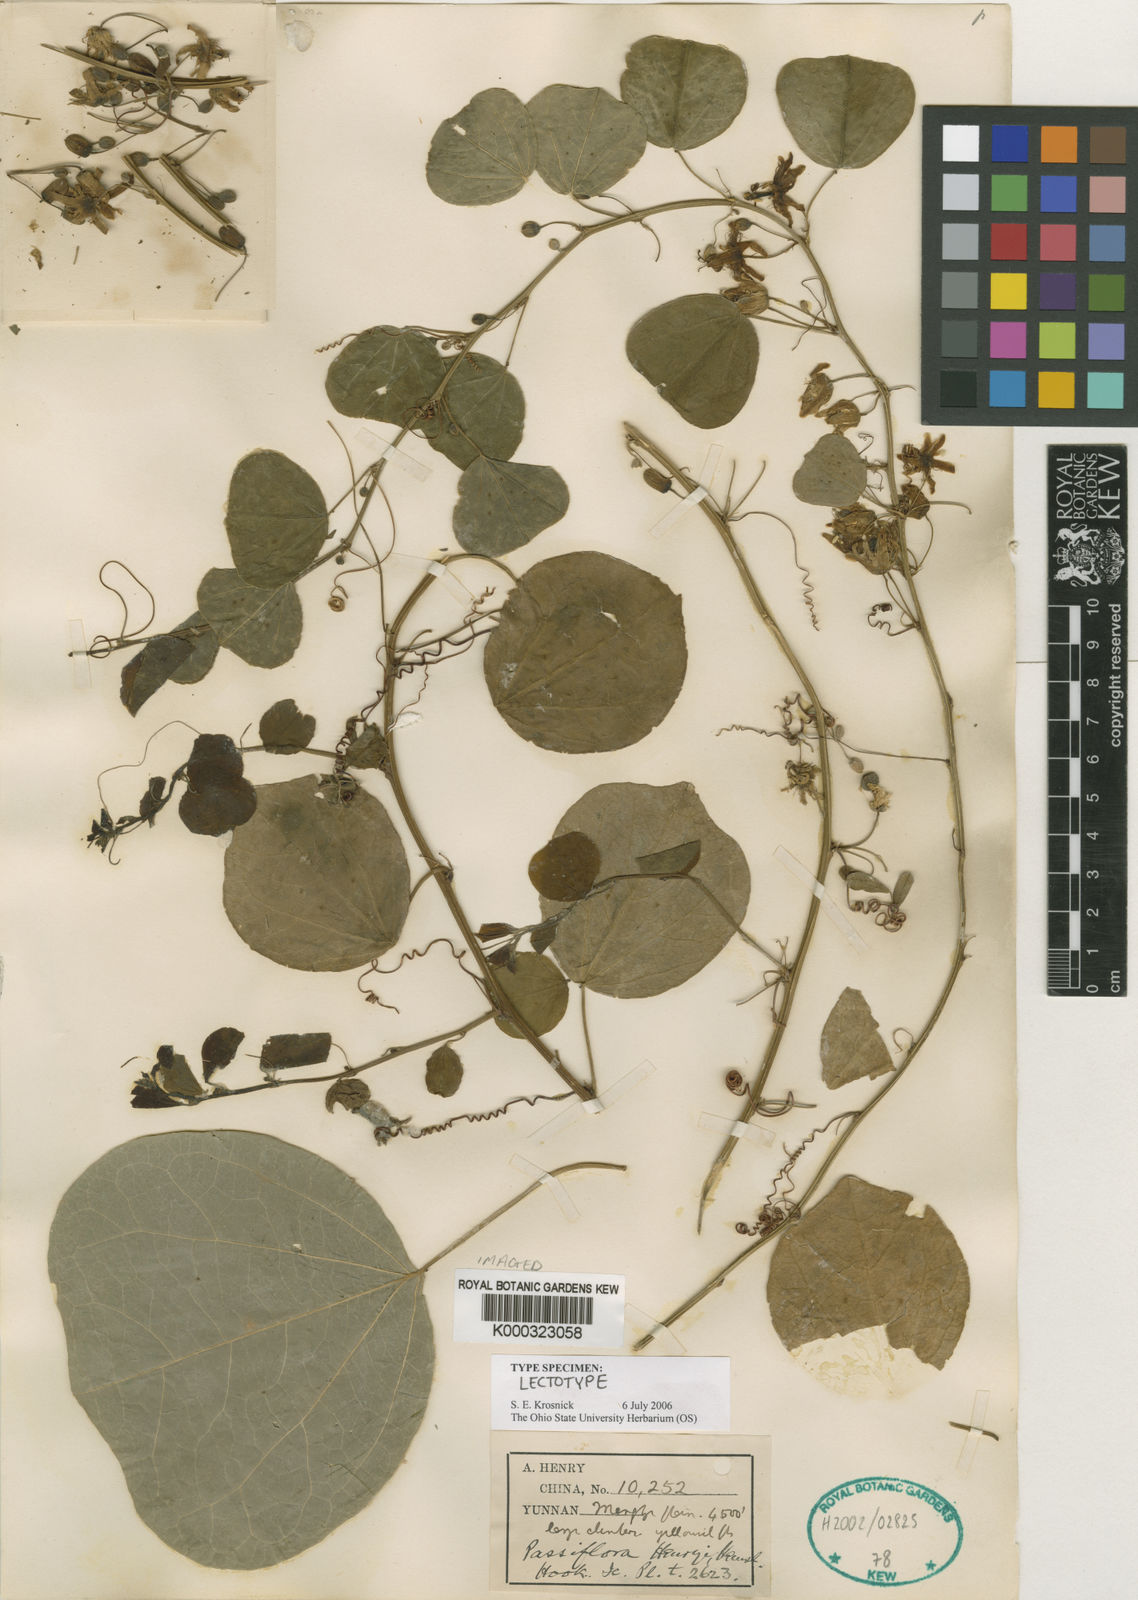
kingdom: Plantae
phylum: Tracheophyta
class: Magnoliopsida
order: Malpighiales
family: Passifloraceae
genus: Passiflora
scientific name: Passiflora henryi
